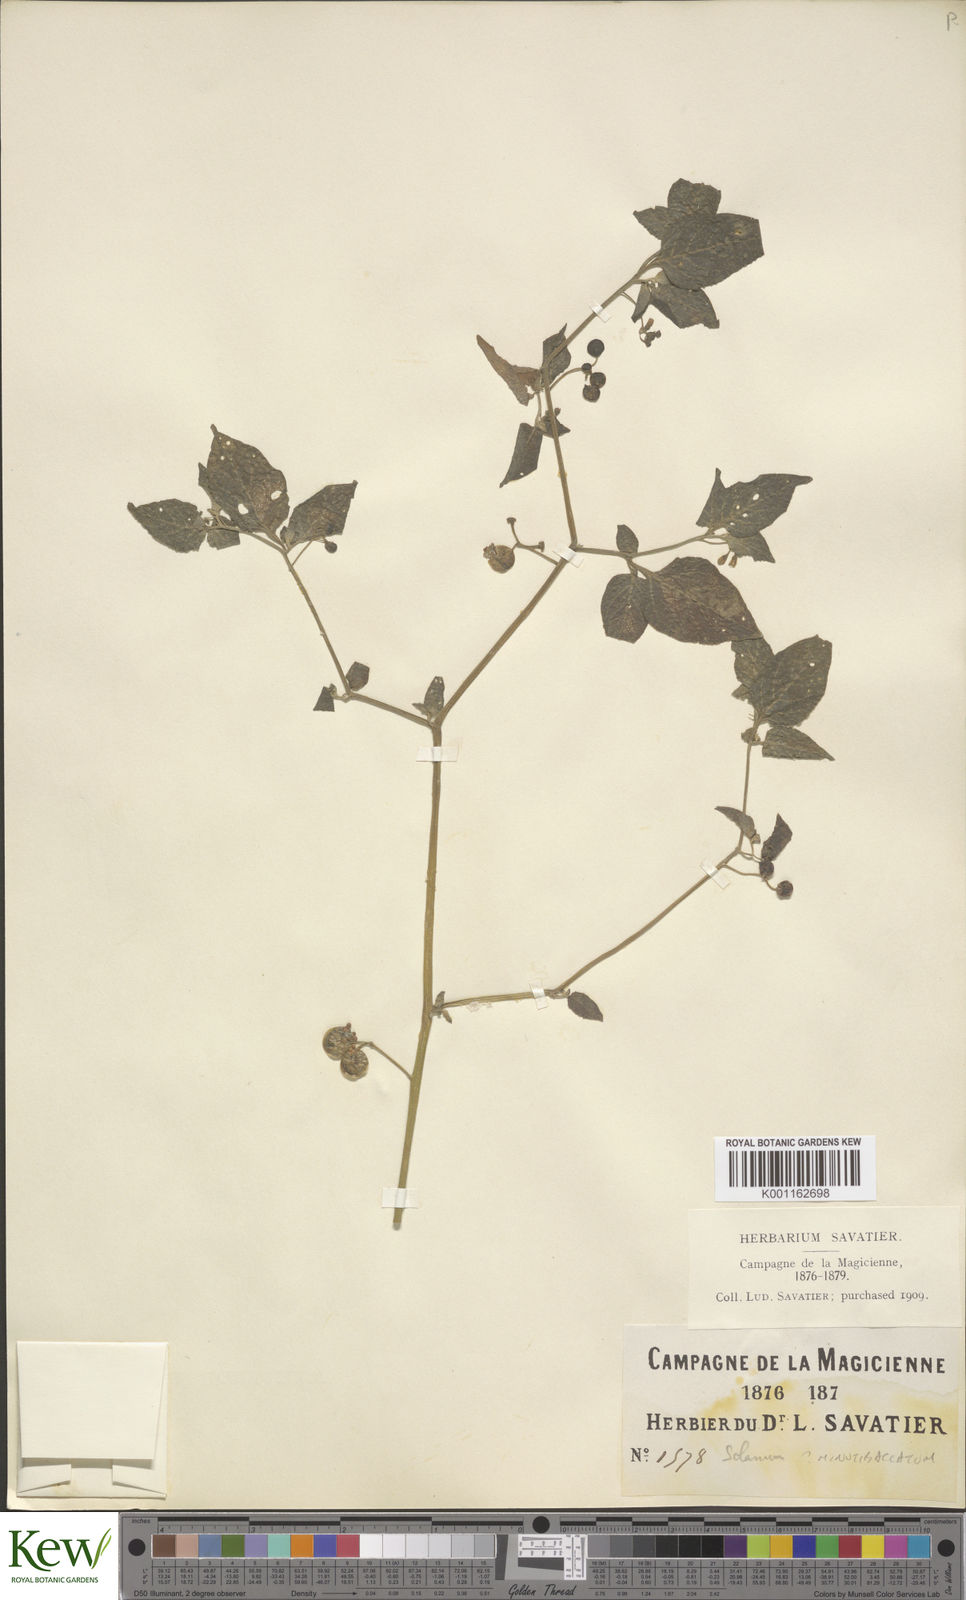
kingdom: Plantae
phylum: Tracheophyta
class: Magnoliopsida
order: Solanales
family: Solanaceae
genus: Solanum
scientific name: Solanum americanum
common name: American black nightshade
